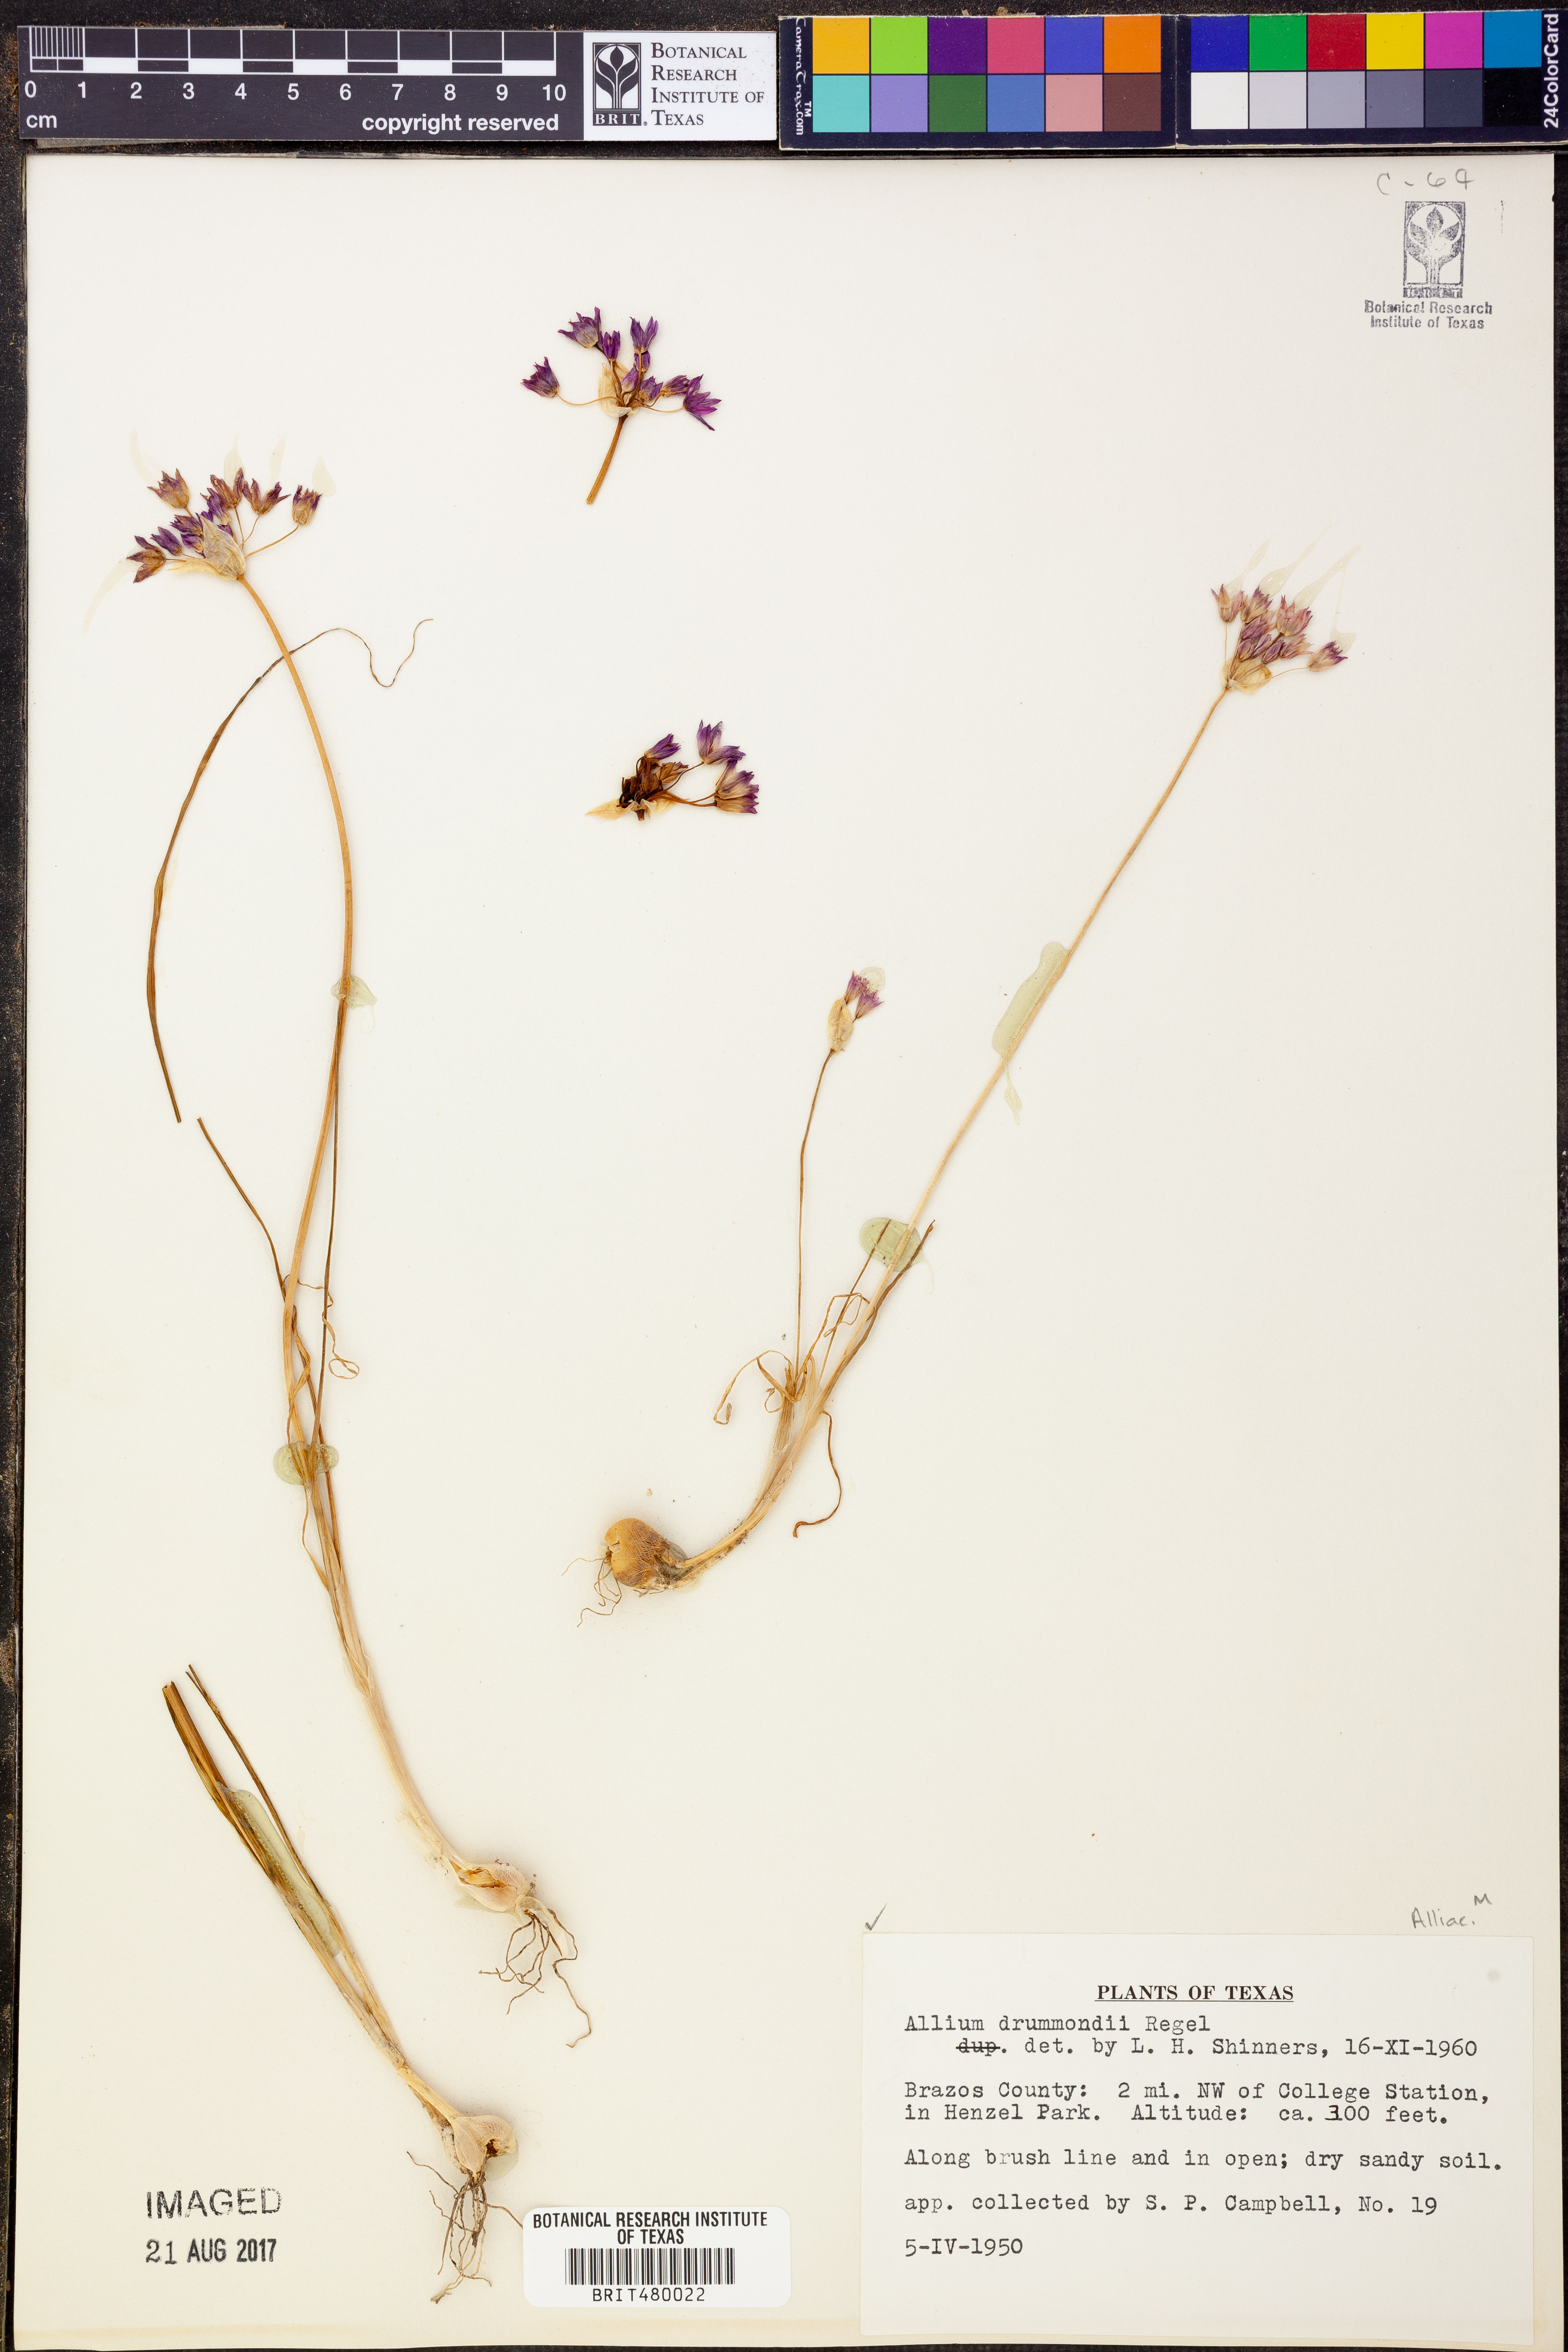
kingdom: Plantae
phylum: Tracheophyta
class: Liliopsida
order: Asparagales
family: Amaryllidaceae
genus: Allium
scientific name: Allium drummondii
